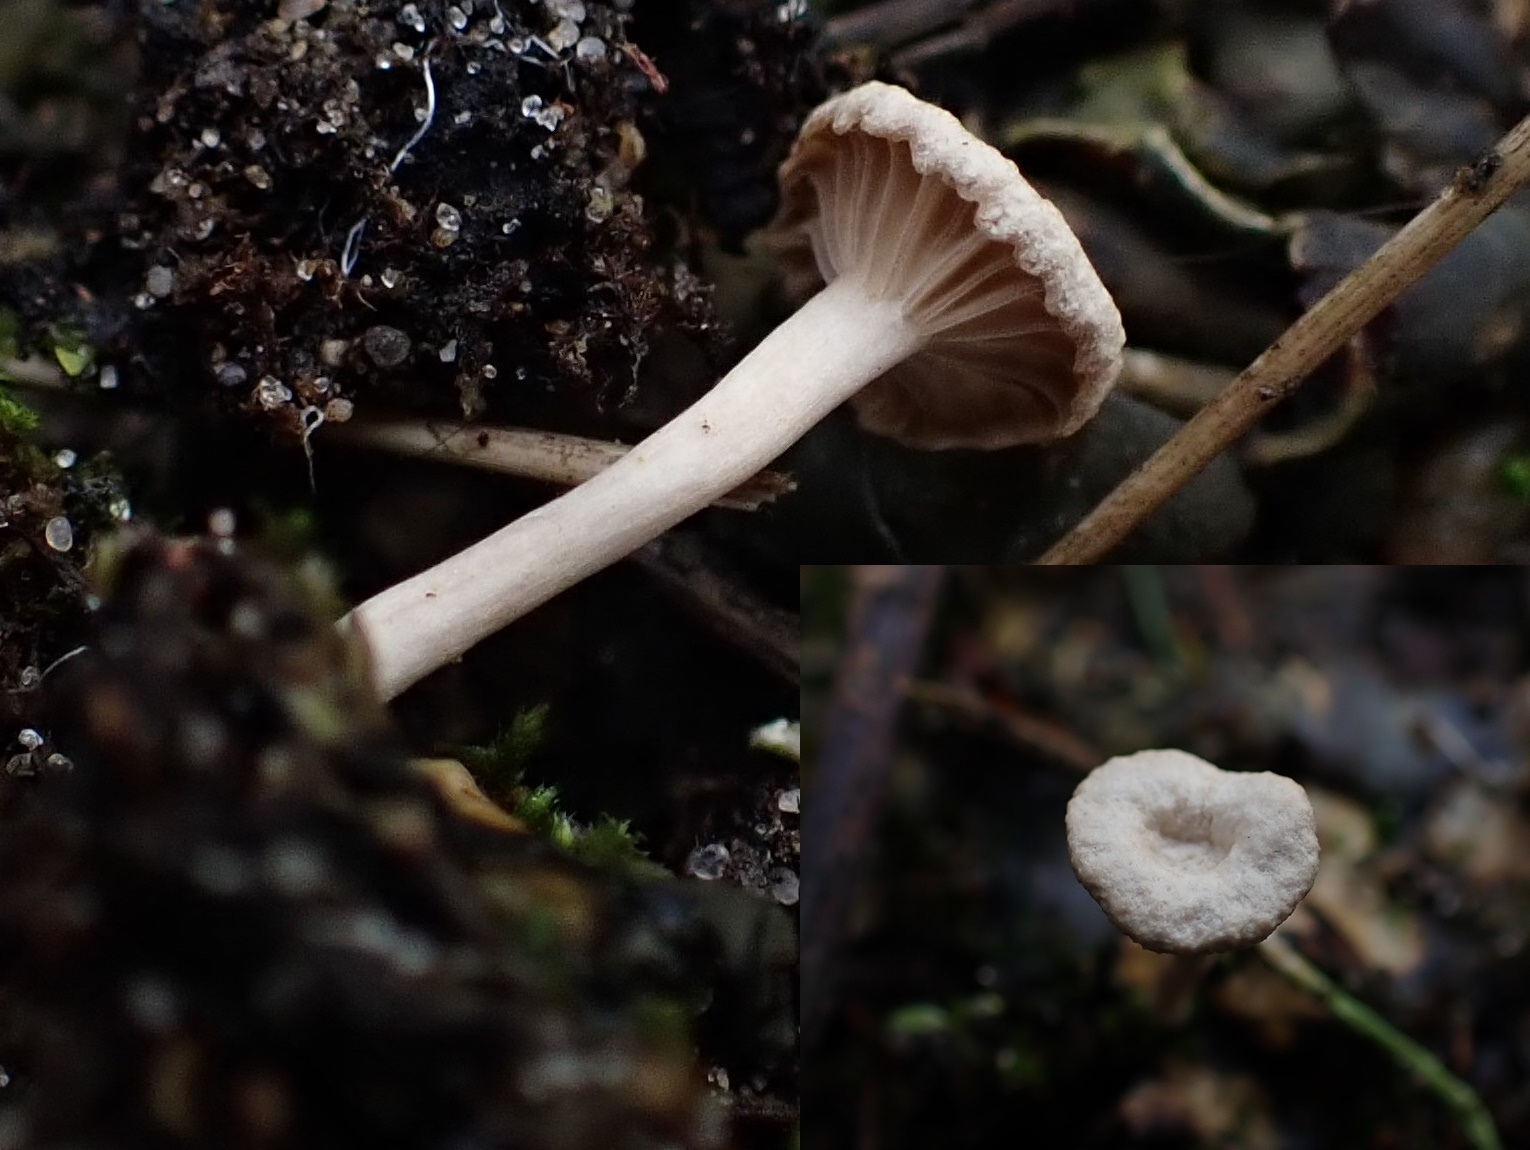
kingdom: Fungi
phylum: Basidiomycota
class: Agaricomycetes
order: Agaricales
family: Hygrophoraceae
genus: Arrhenia
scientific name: Arrhenia peltigerina
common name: skjoldlav-fontænehat
